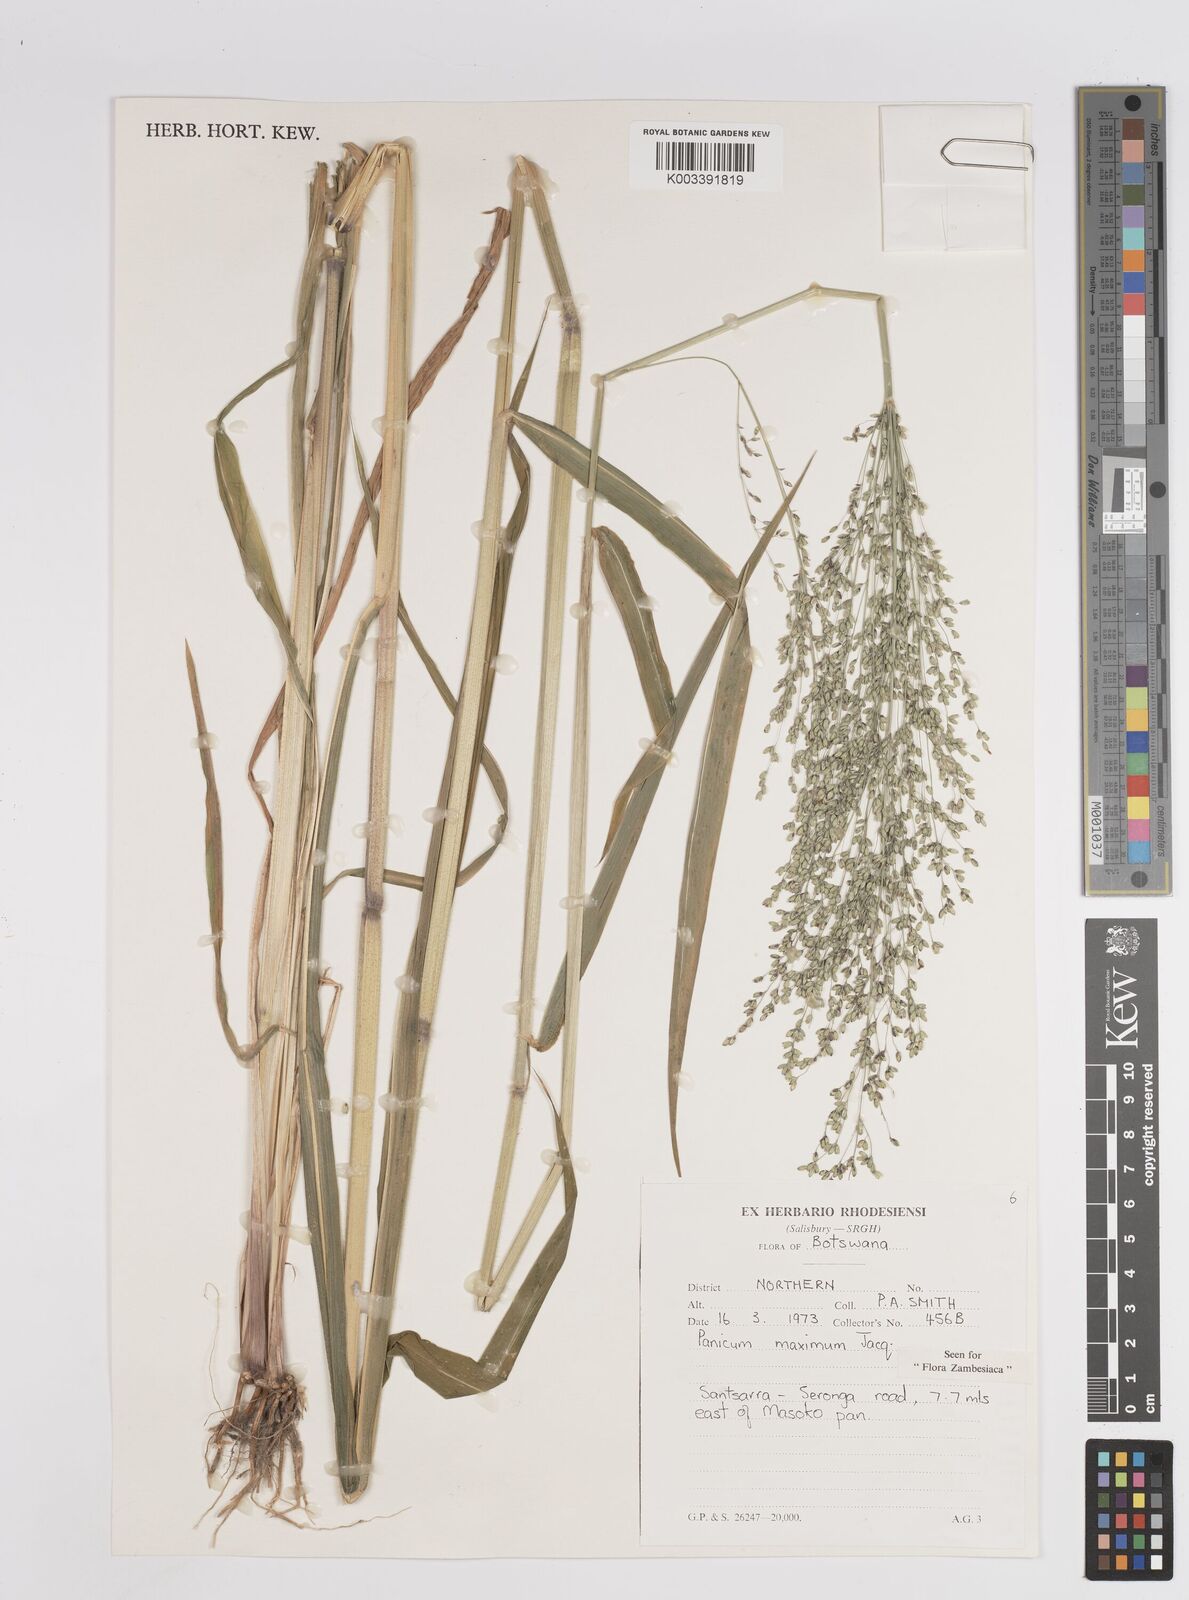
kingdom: Plantae
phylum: Tracheophyta
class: Liliopsida
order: Poales
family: Poaceae
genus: Megathyrsus
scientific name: Megathyrsus maximus
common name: Guineagrass
